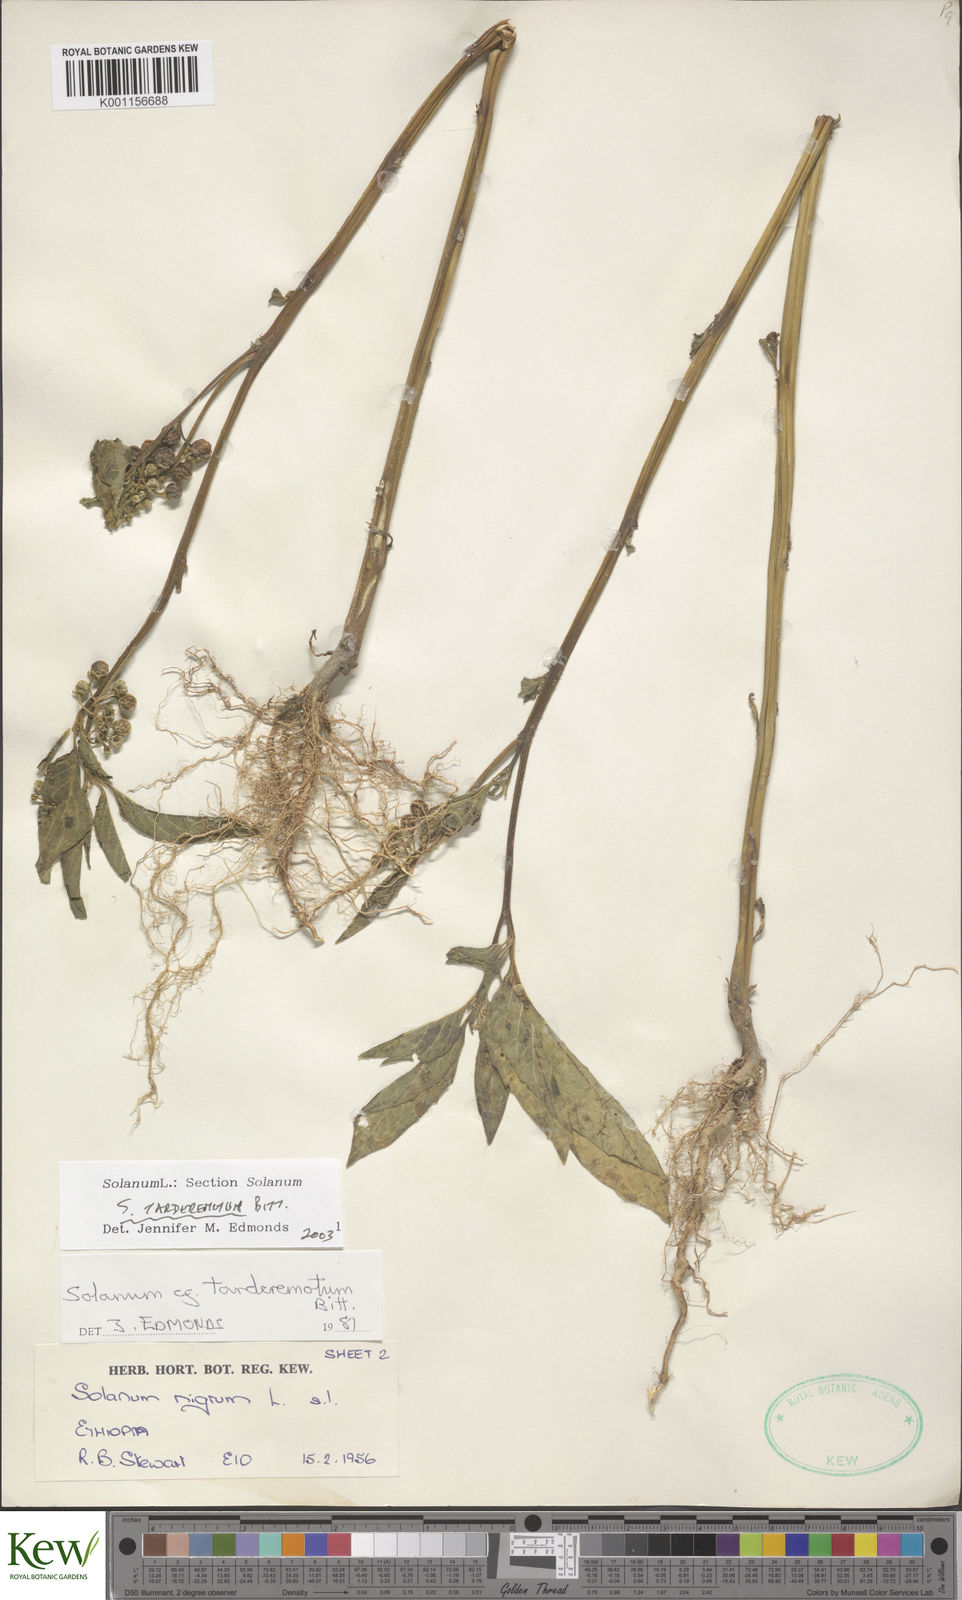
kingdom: Plantae
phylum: Tracheophyta
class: Magnoliopsida
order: Solanales
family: Solanaceae
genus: Solanum
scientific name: Solanum tarderemotum
